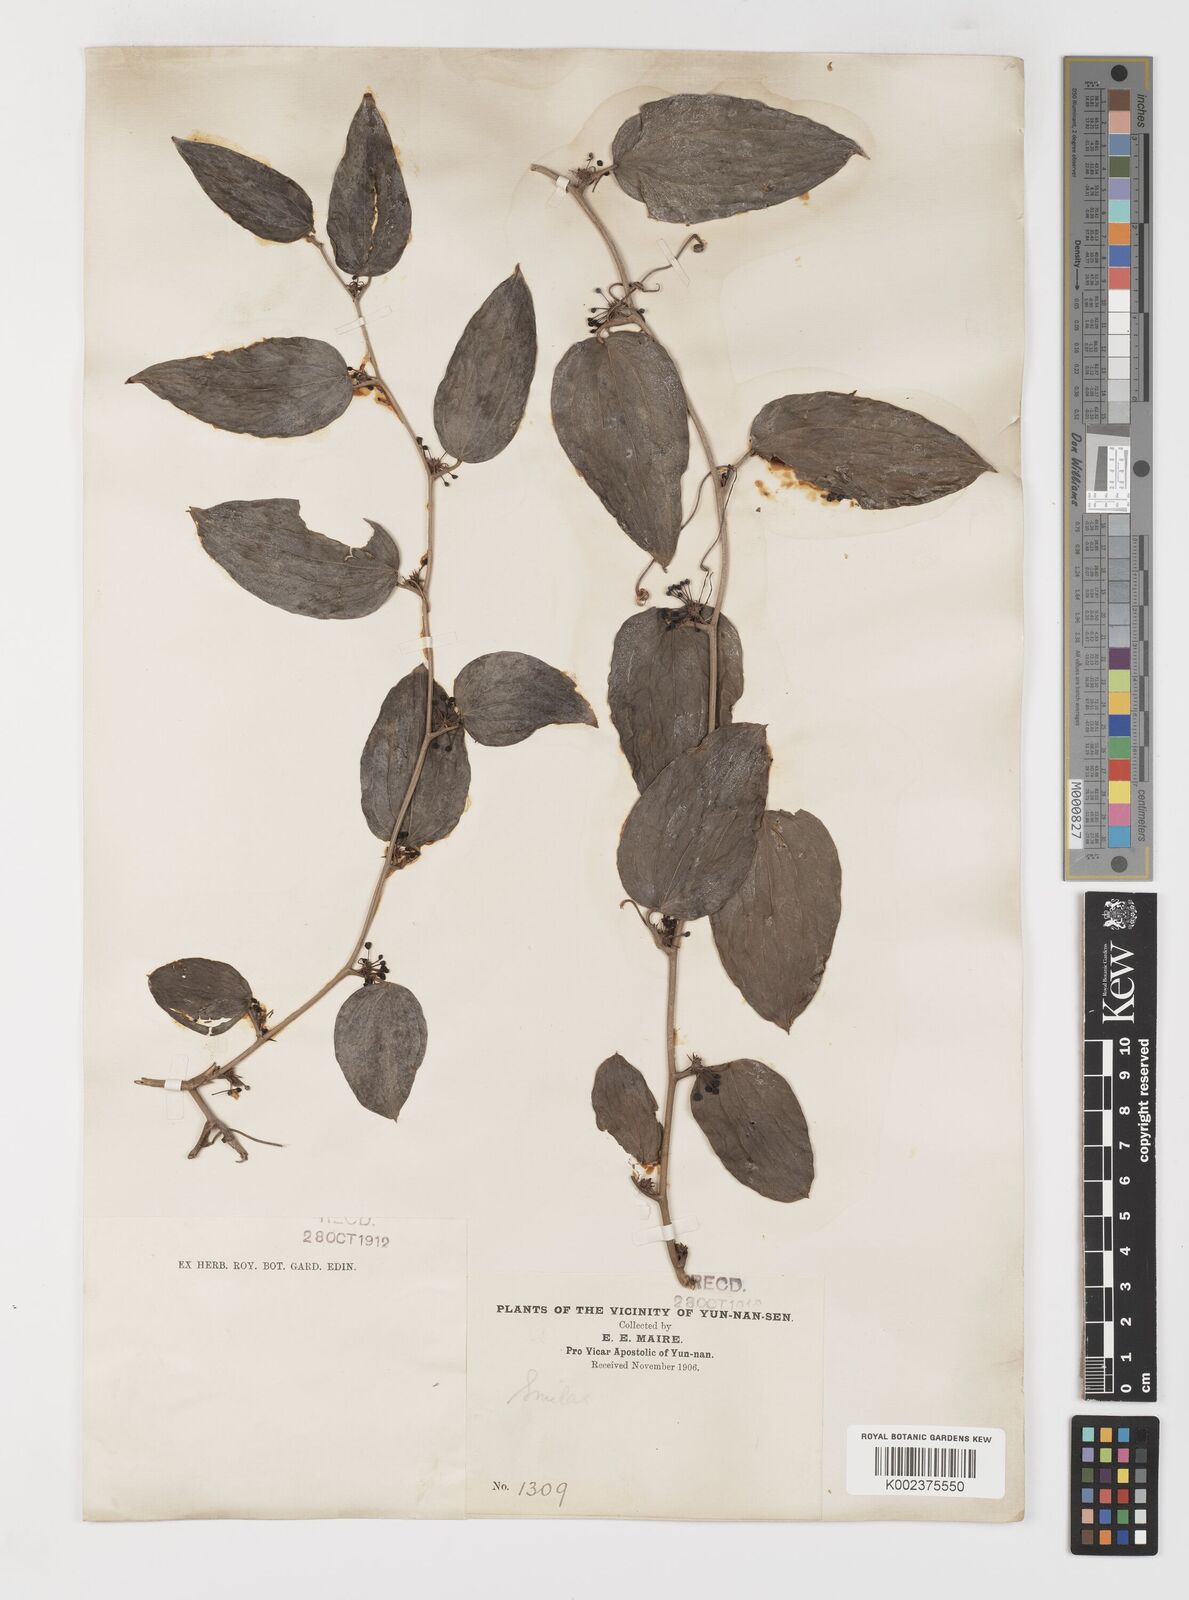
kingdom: Plantae
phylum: Tracheophyta
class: Liliopsida
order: Liliales
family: Smilacaceae
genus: Smilax
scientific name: Smilax lanceifolia
